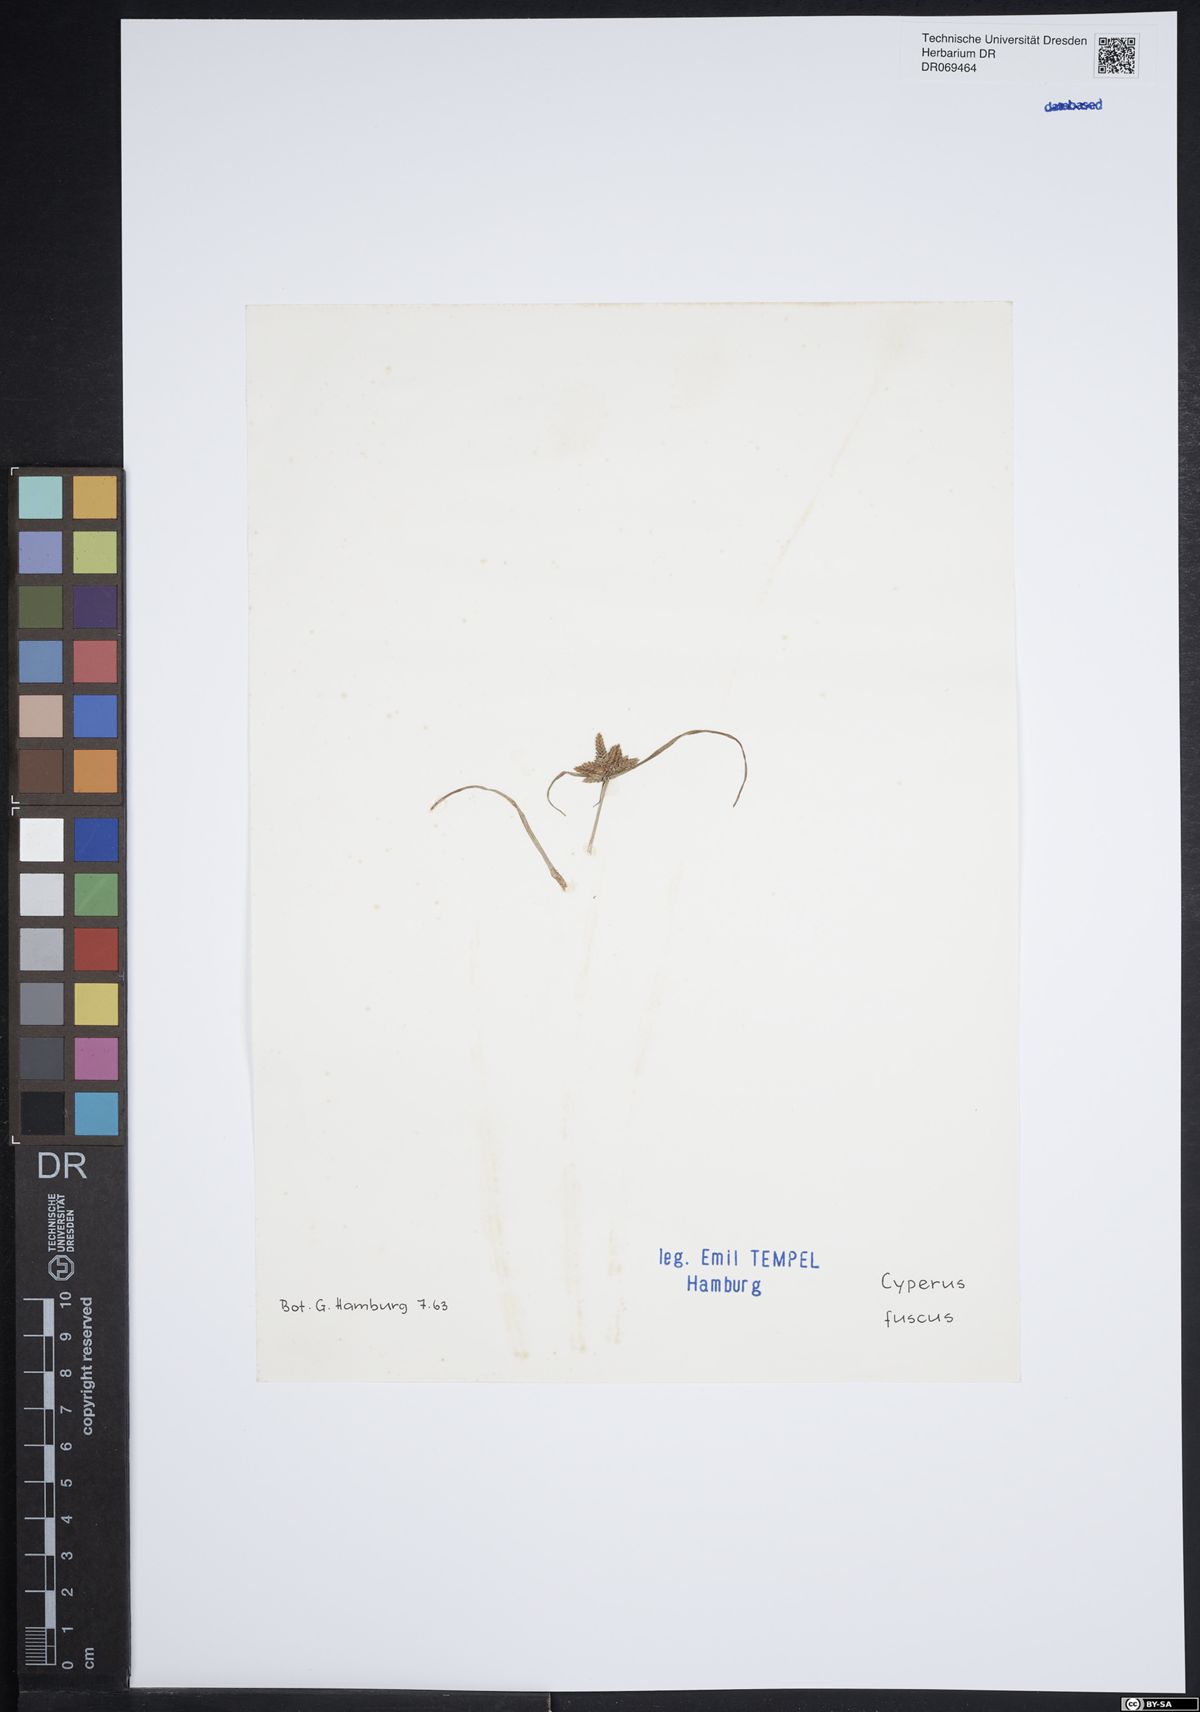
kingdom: Plantae
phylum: Tracheophyta
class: Liliopsida
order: Poales
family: Cyperaceae
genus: Cyperus
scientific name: Cyperus fuscus
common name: Brown galingale
